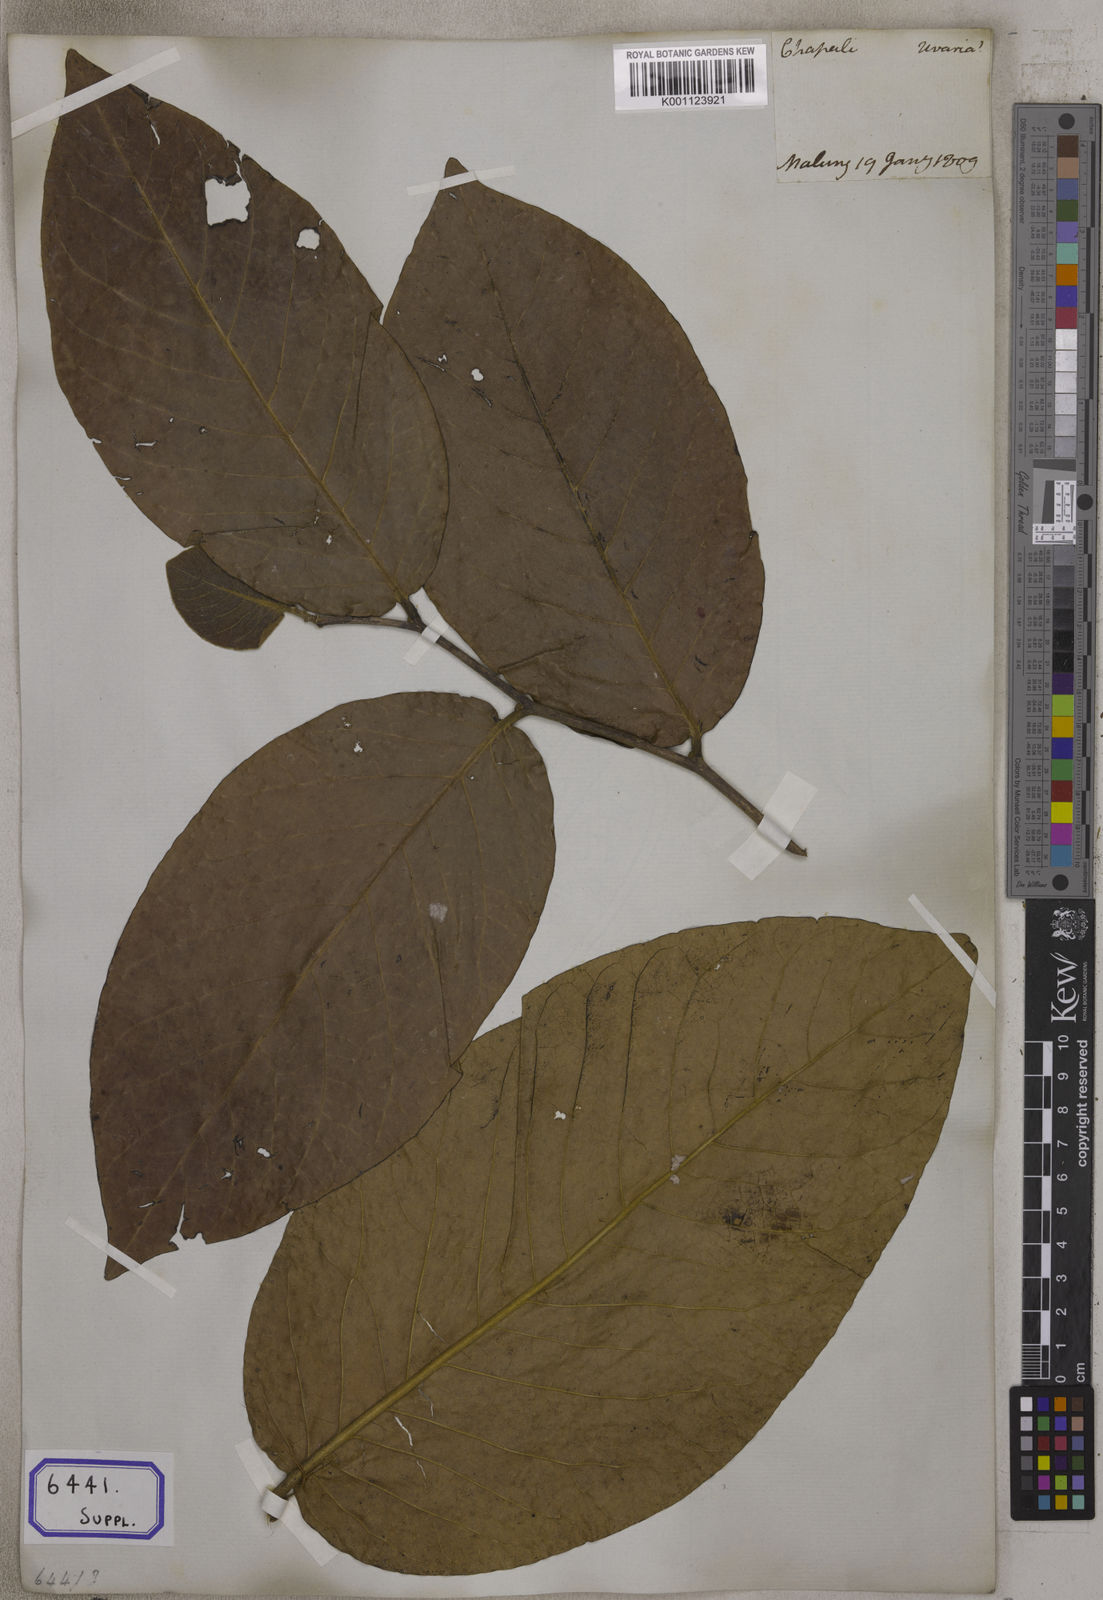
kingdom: Plantae
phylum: Tracheophyta
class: Magnoliopsida
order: Magnoliales
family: Annonaceae
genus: Miliusa
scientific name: Miliusa velutina
